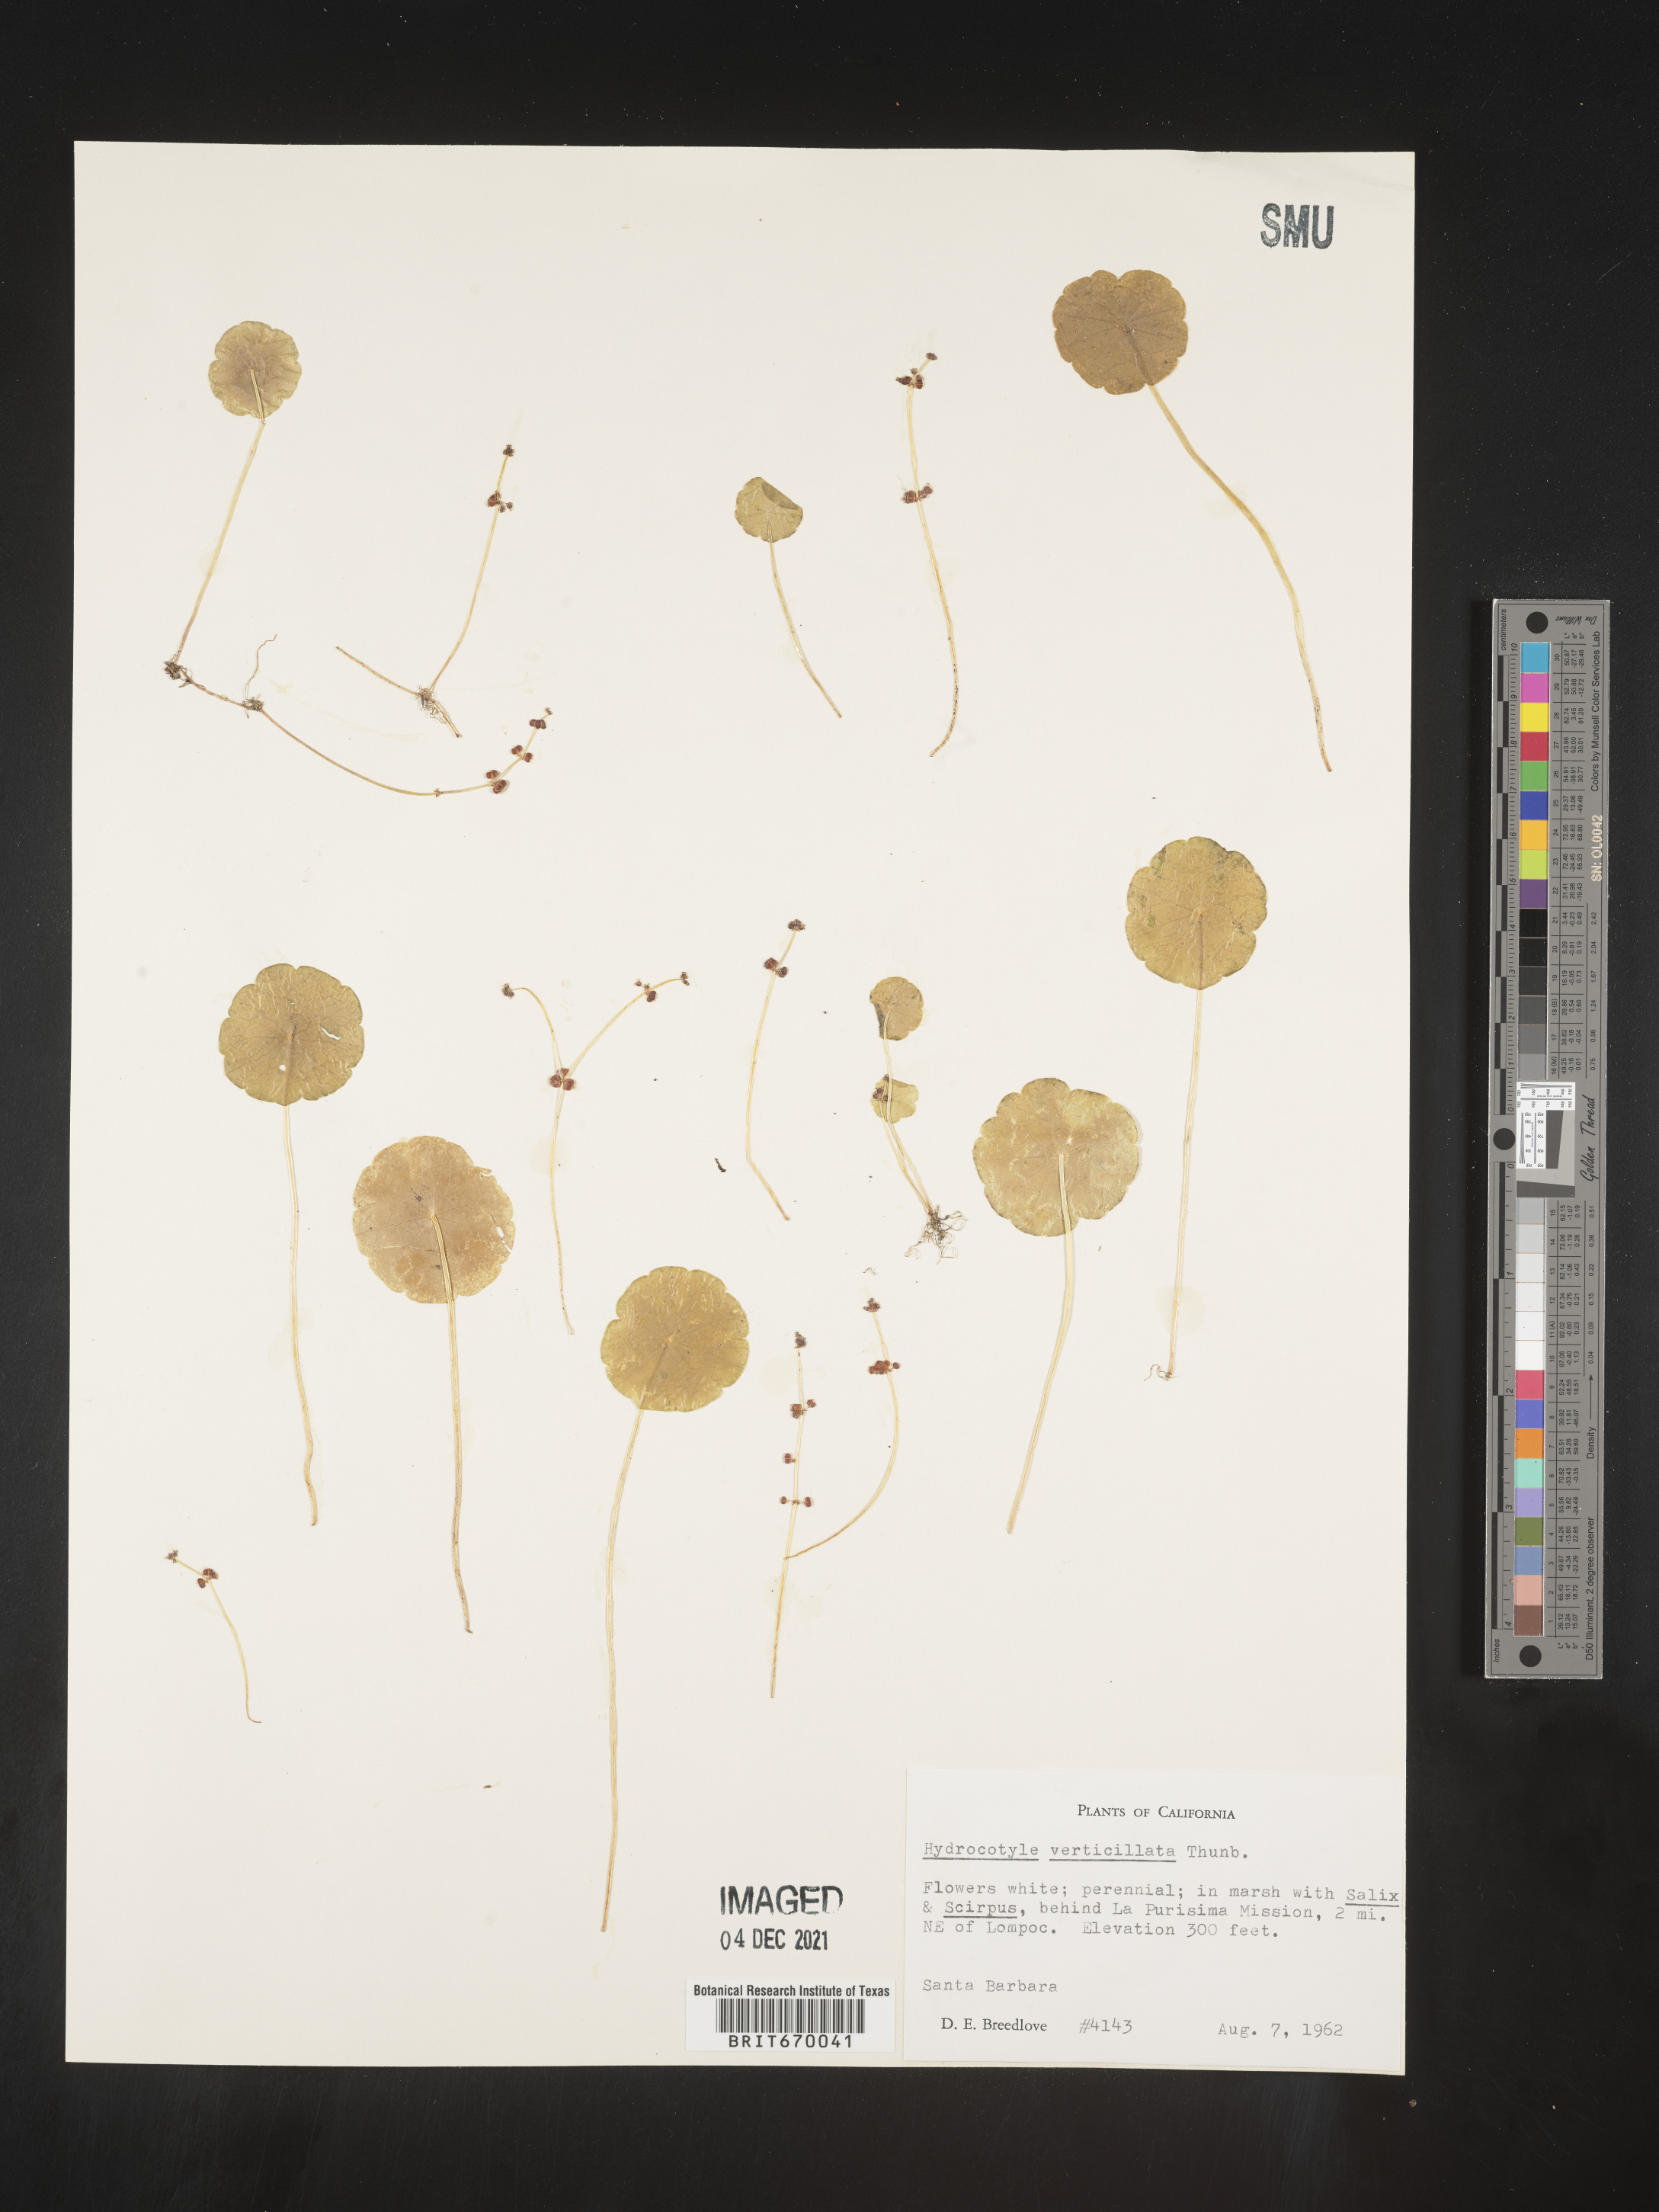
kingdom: Plantae
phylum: Tracheophyta
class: Magnoliopsida
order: Apiales
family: Araliaceae
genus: Hydrocotyle
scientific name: Hydrocotyle verticillata
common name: Whorled marshpennywort
